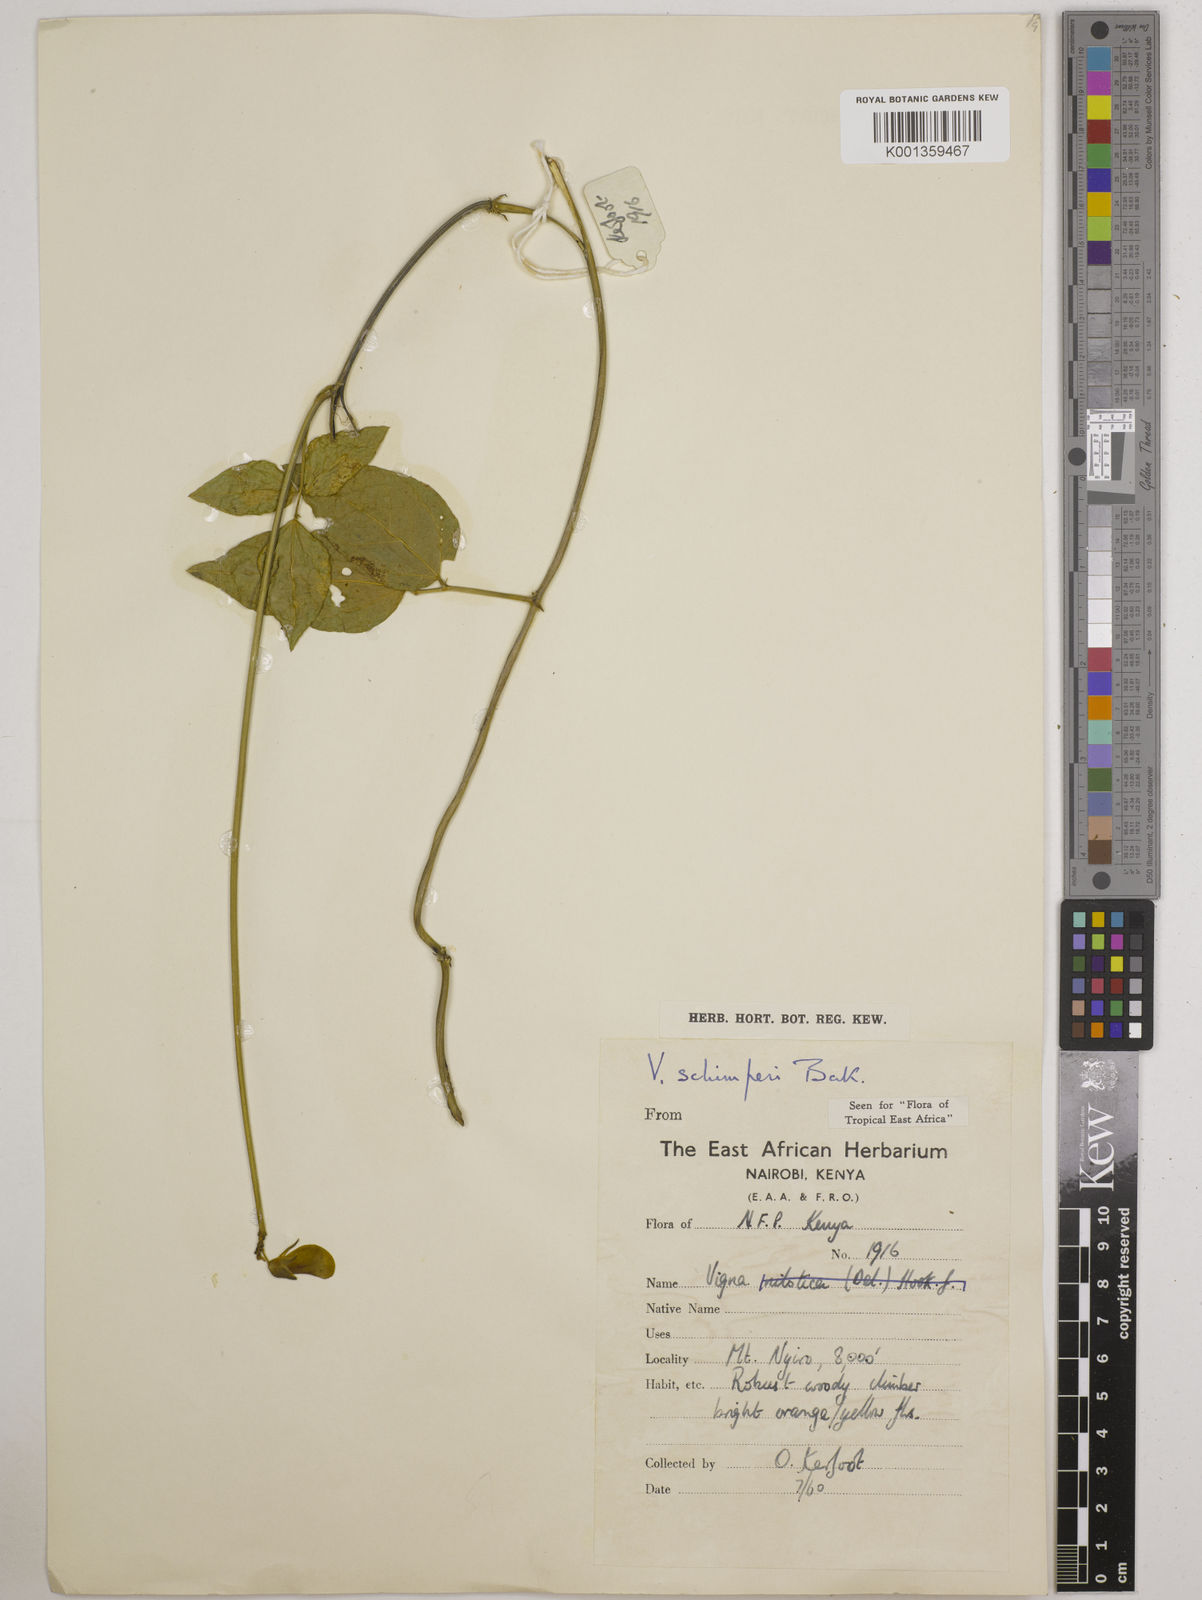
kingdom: Plantae
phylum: Tracheophyta
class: Magnoliopsida
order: Fabales
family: Fabaceae
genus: Vigna
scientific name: Vigna schimperi
